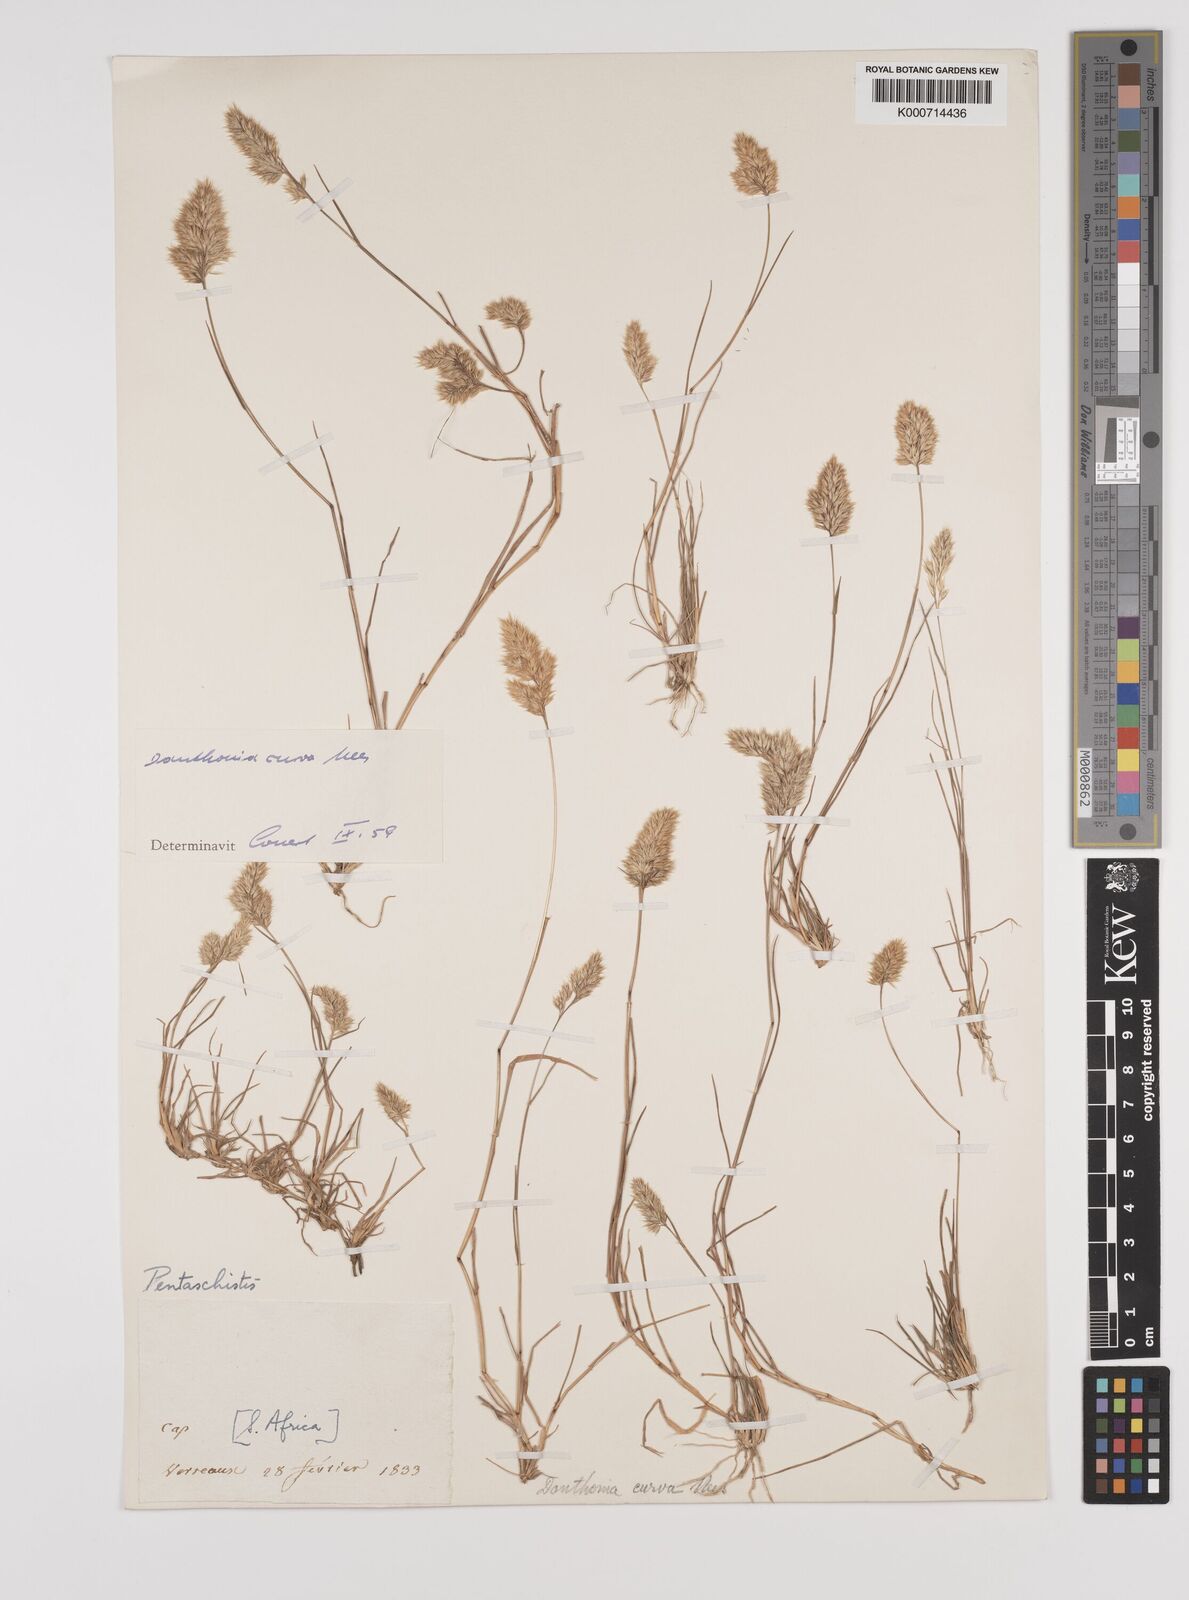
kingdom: Plantae
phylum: Tracheophyta
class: Liliopsida
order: Poales
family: Poaceae
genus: Rytidosperma
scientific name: Rytidosperma
